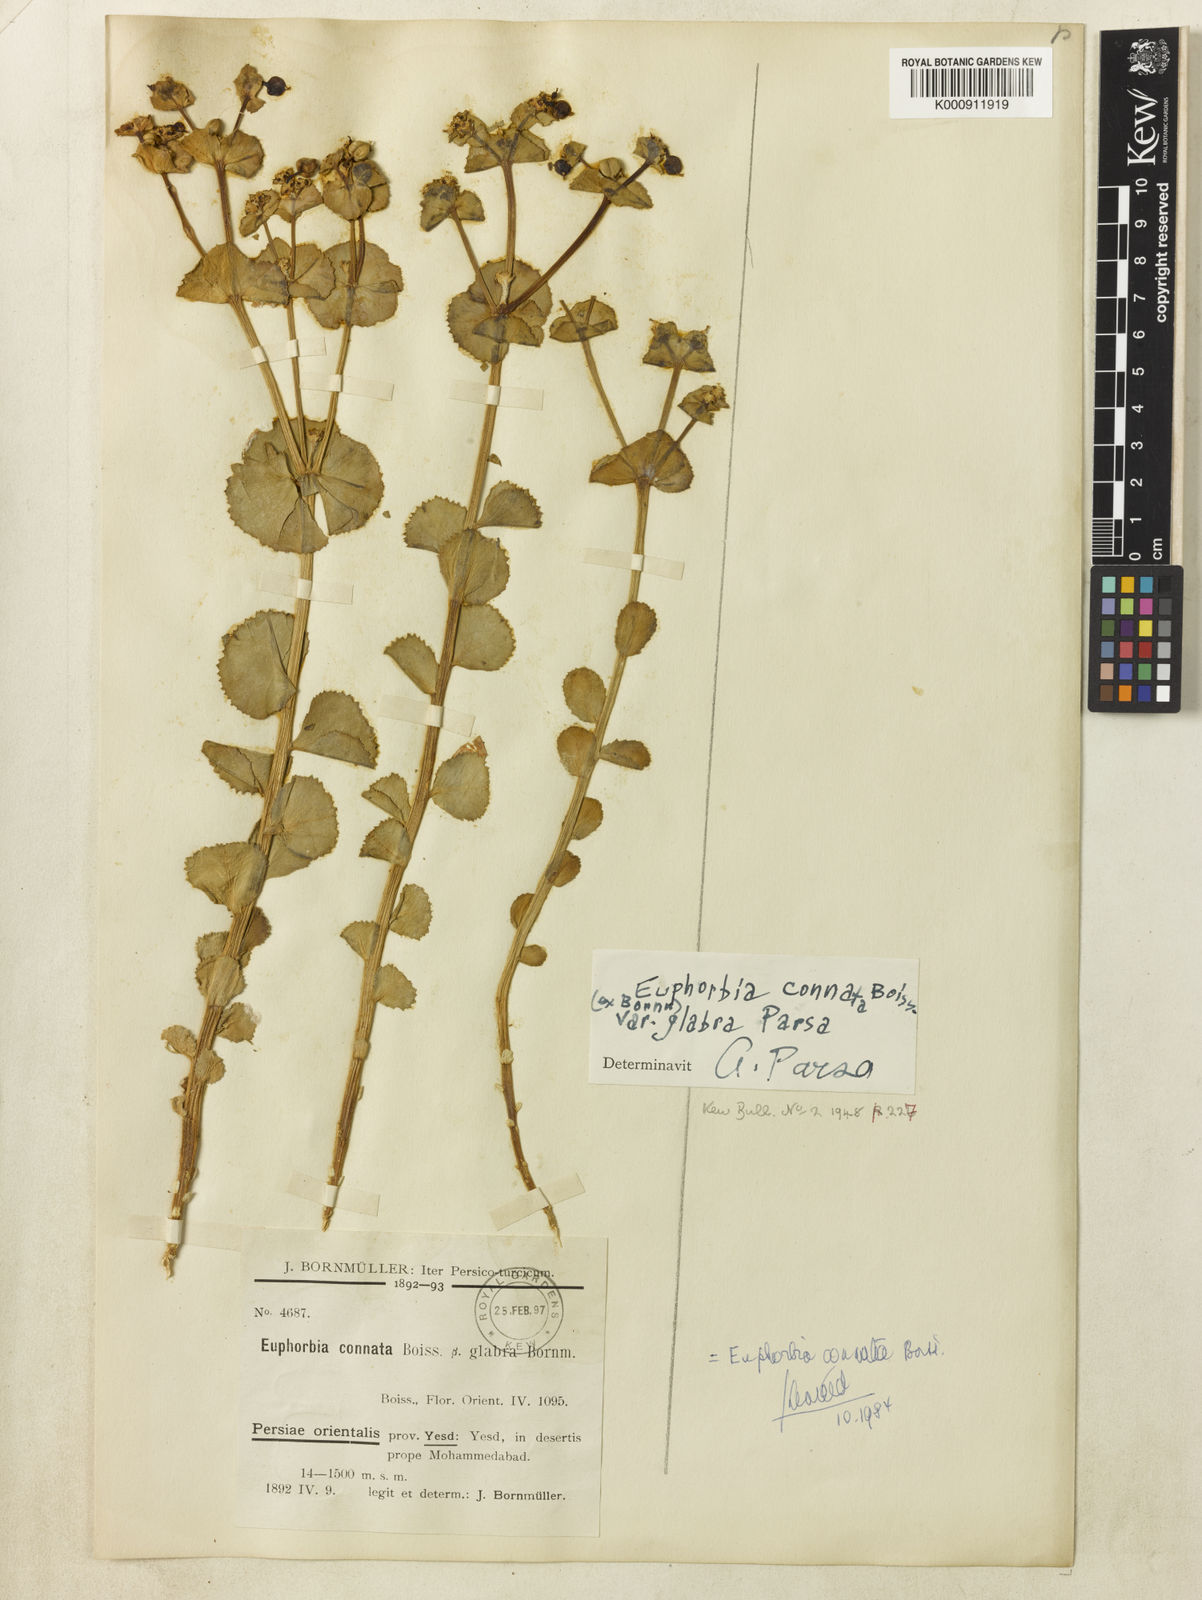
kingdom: Plantae
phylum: Tracheophyta
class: Magnoliopsida
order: Malpighiales
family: Euphorbiaceae
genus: Euphorbia
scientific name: Euphorbia connata
